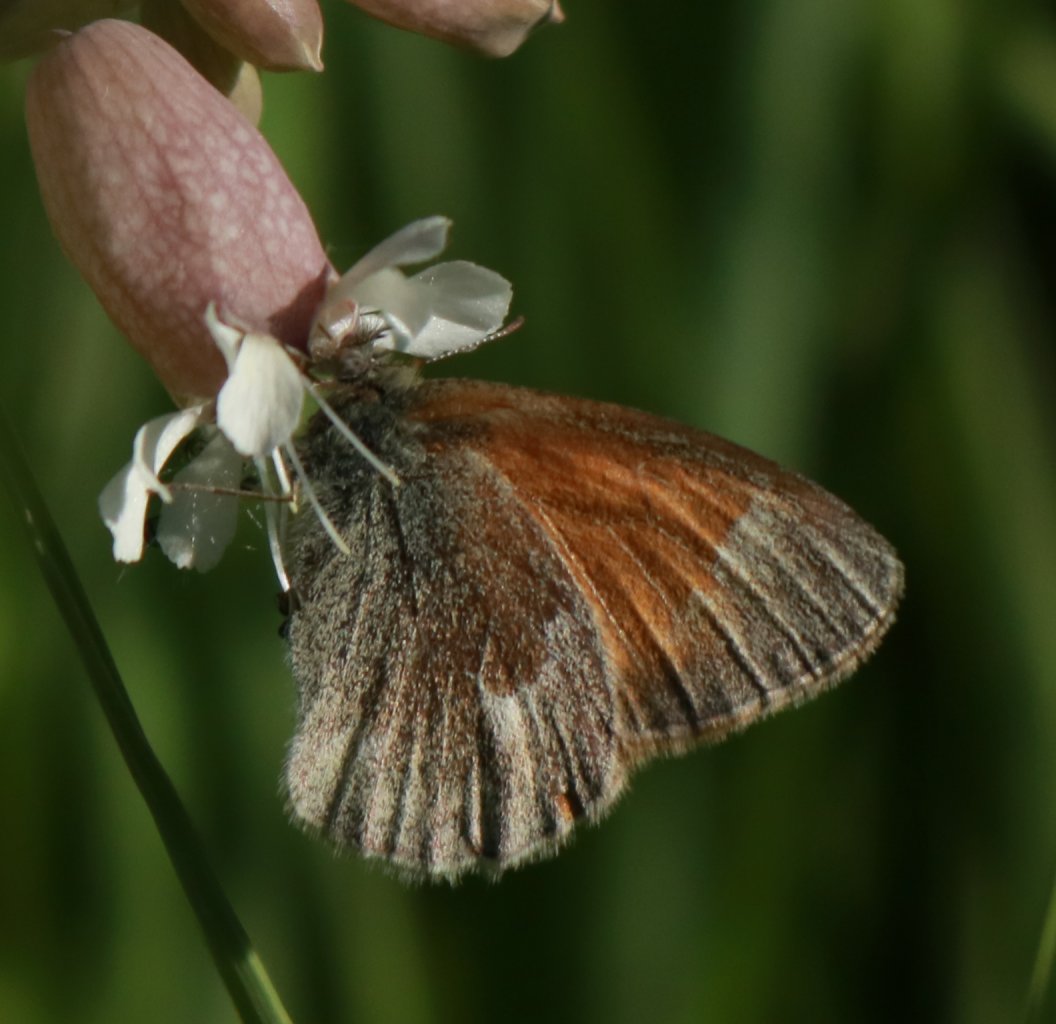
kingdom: Animalia
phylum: Arthropoda
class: Insecta
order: Lepidoptera
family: Nymphalidae
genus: Coenonympha
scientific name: Coenonympha tullia
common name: Large Heath
